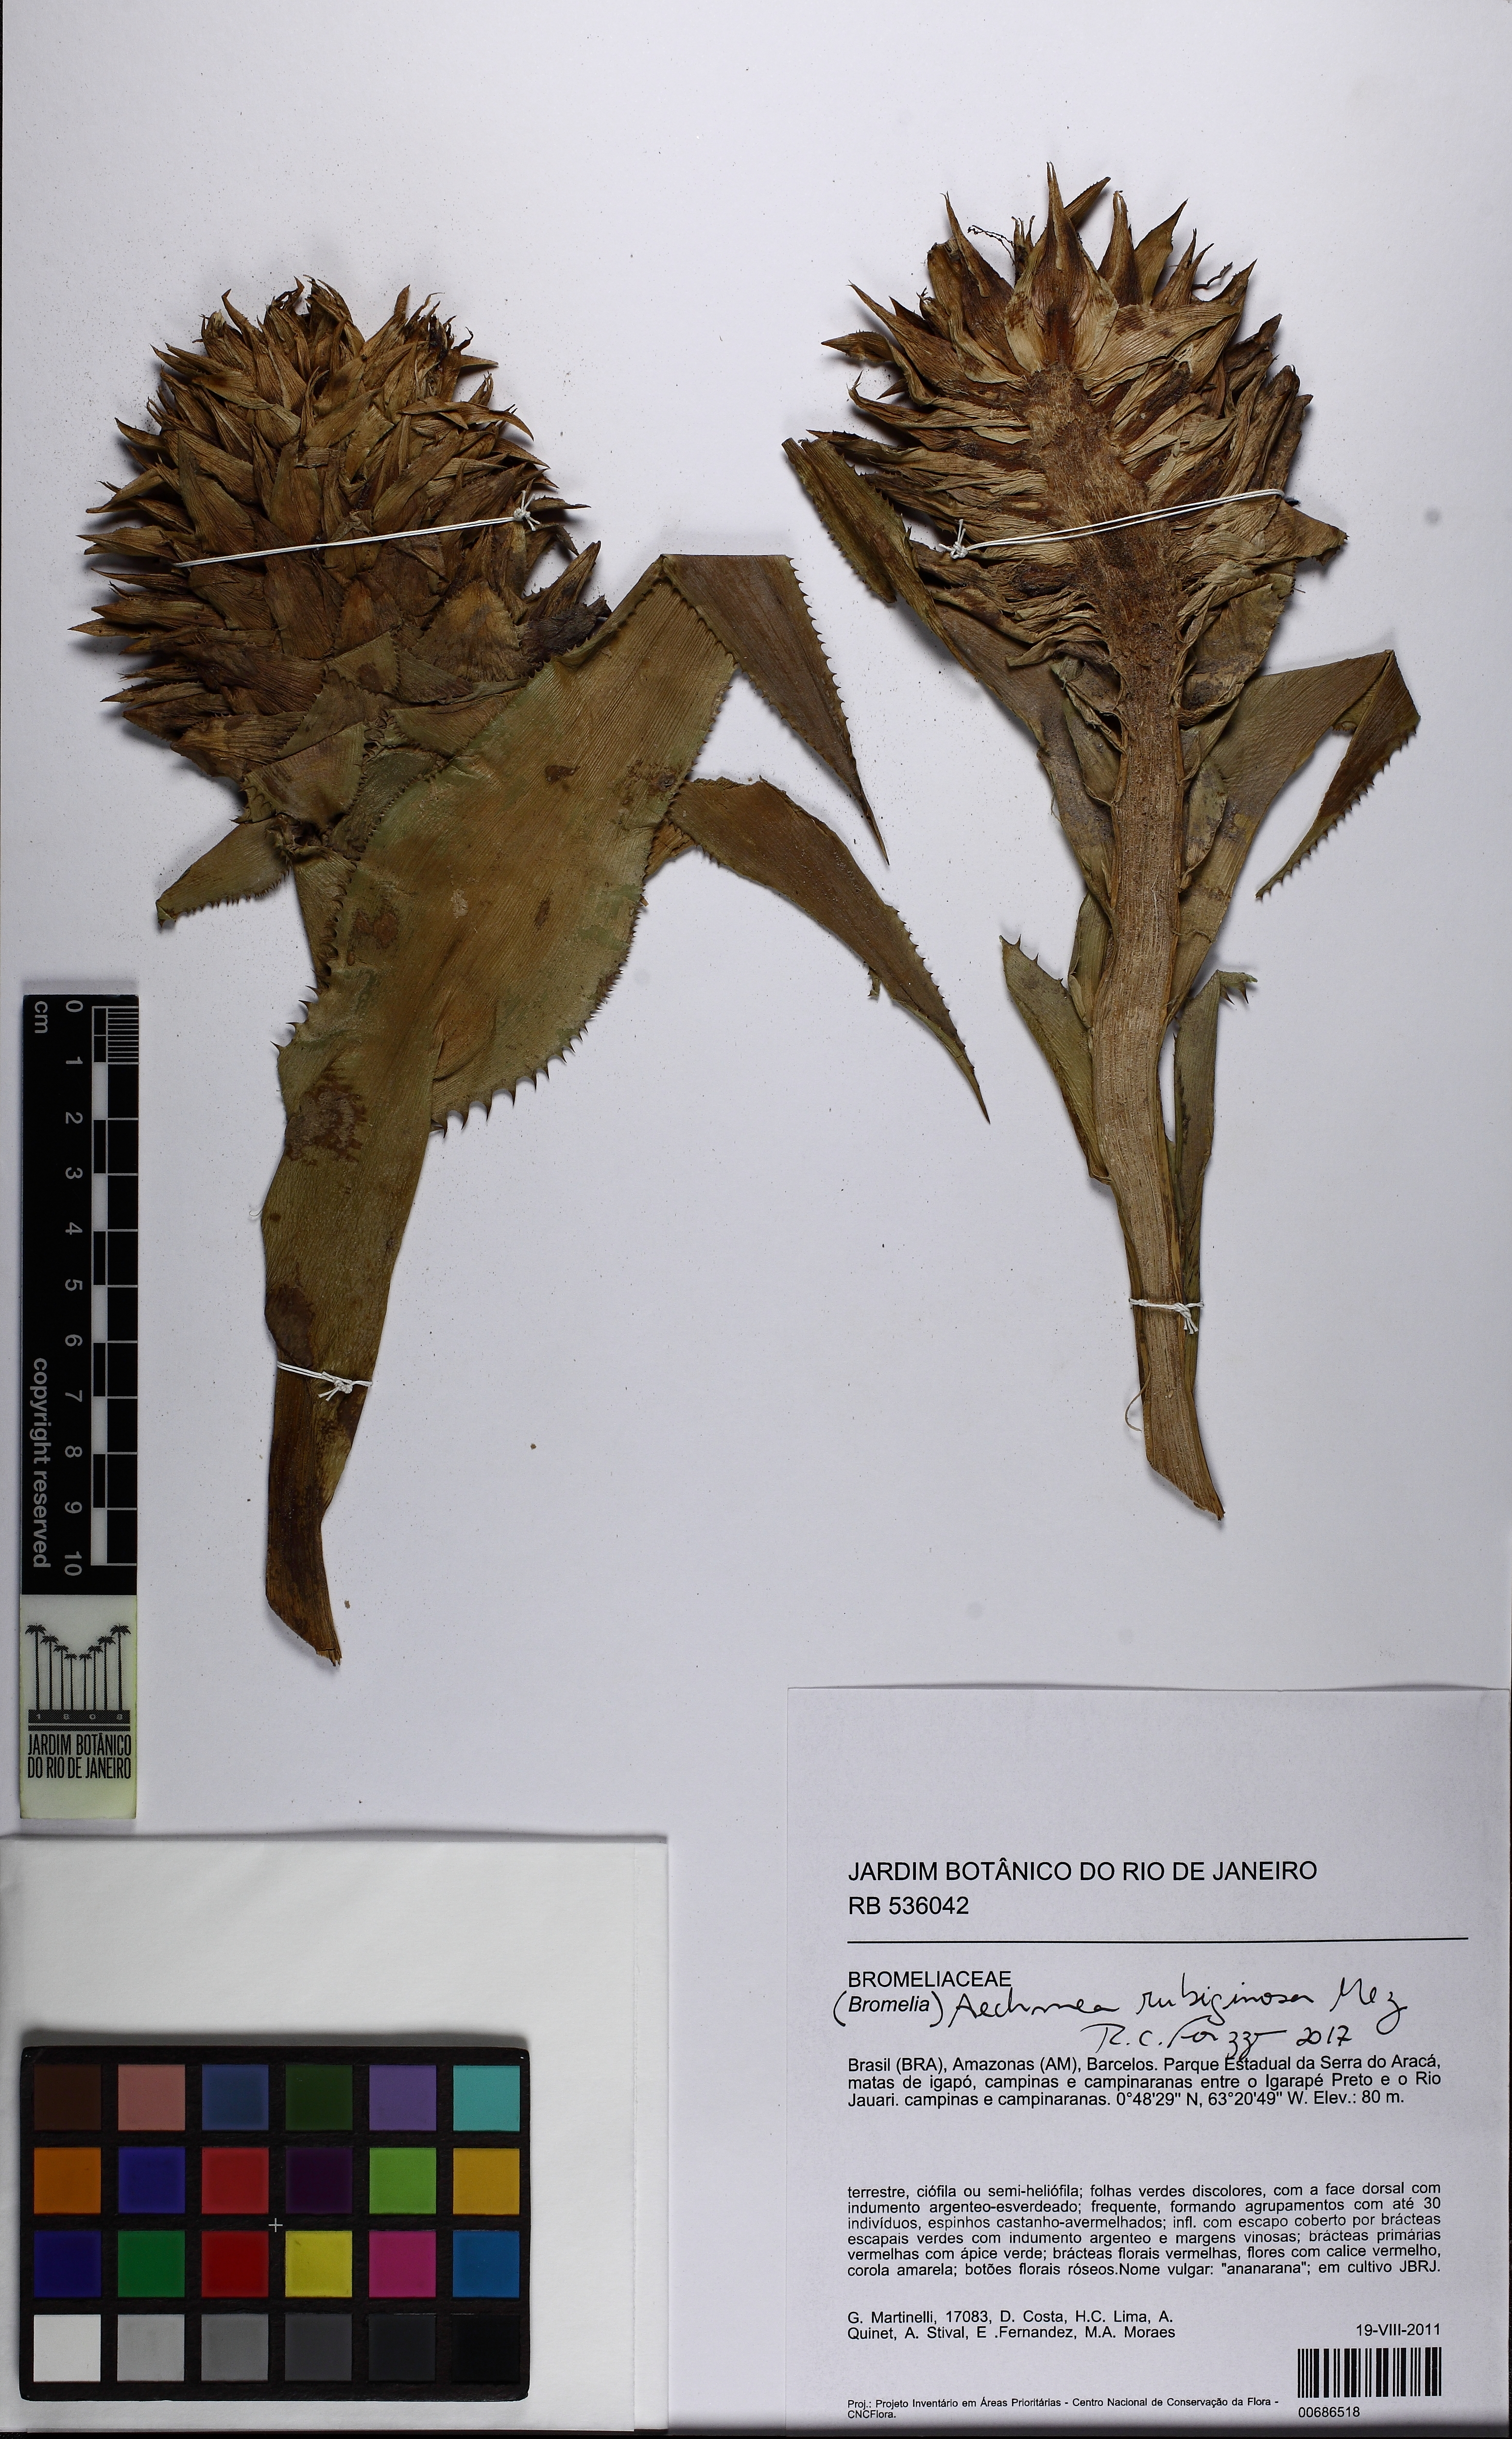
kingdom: Plantae
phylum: Tracheophyta
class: Liliopsida
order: Poales
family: Bromeliaceae
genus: Aechmea
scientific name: Aechmea rubiginosa
